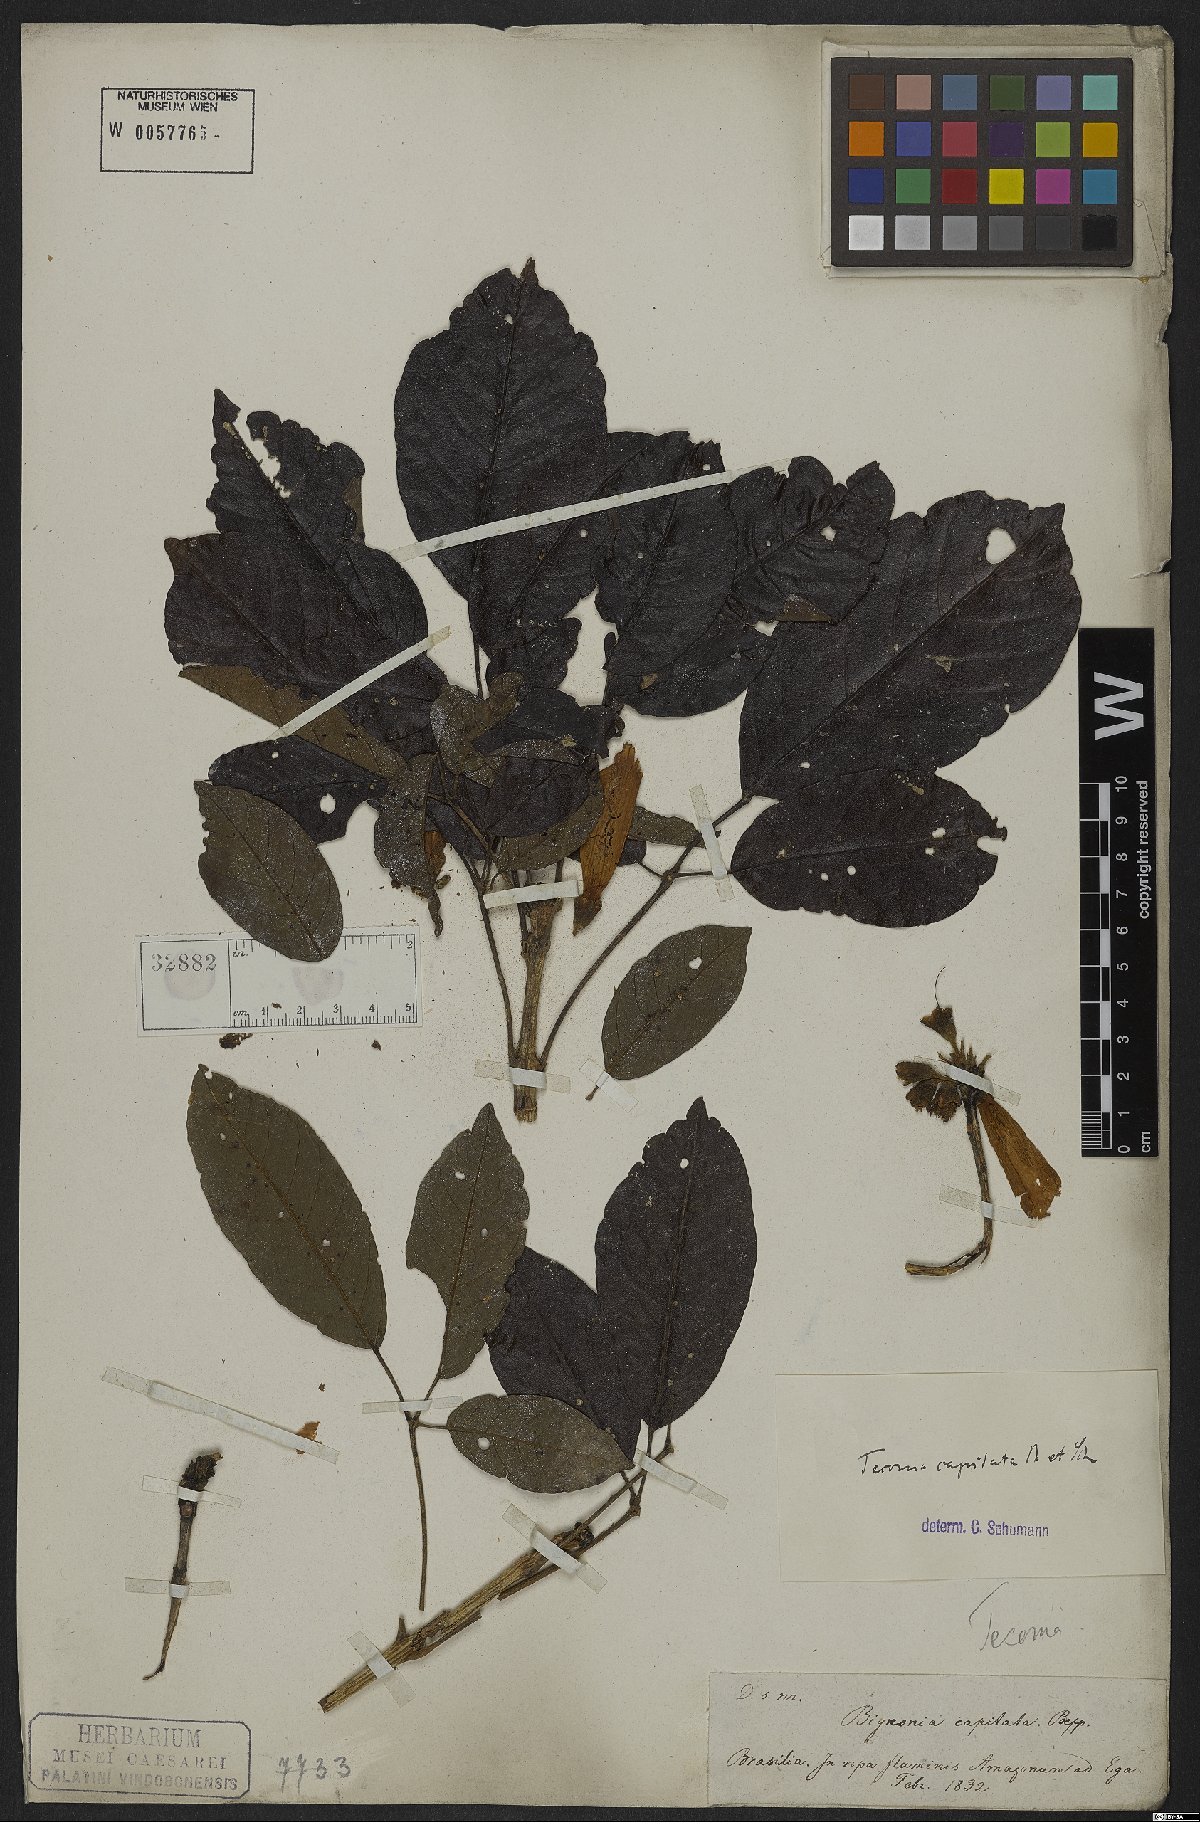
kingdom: Plantae
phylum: Tracheophyta
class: Magnoliopsida
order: Lamiales
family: Bignoniaceae
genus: Handroanthus
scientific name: Handroanthus capitatus
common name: Trumpet trees
